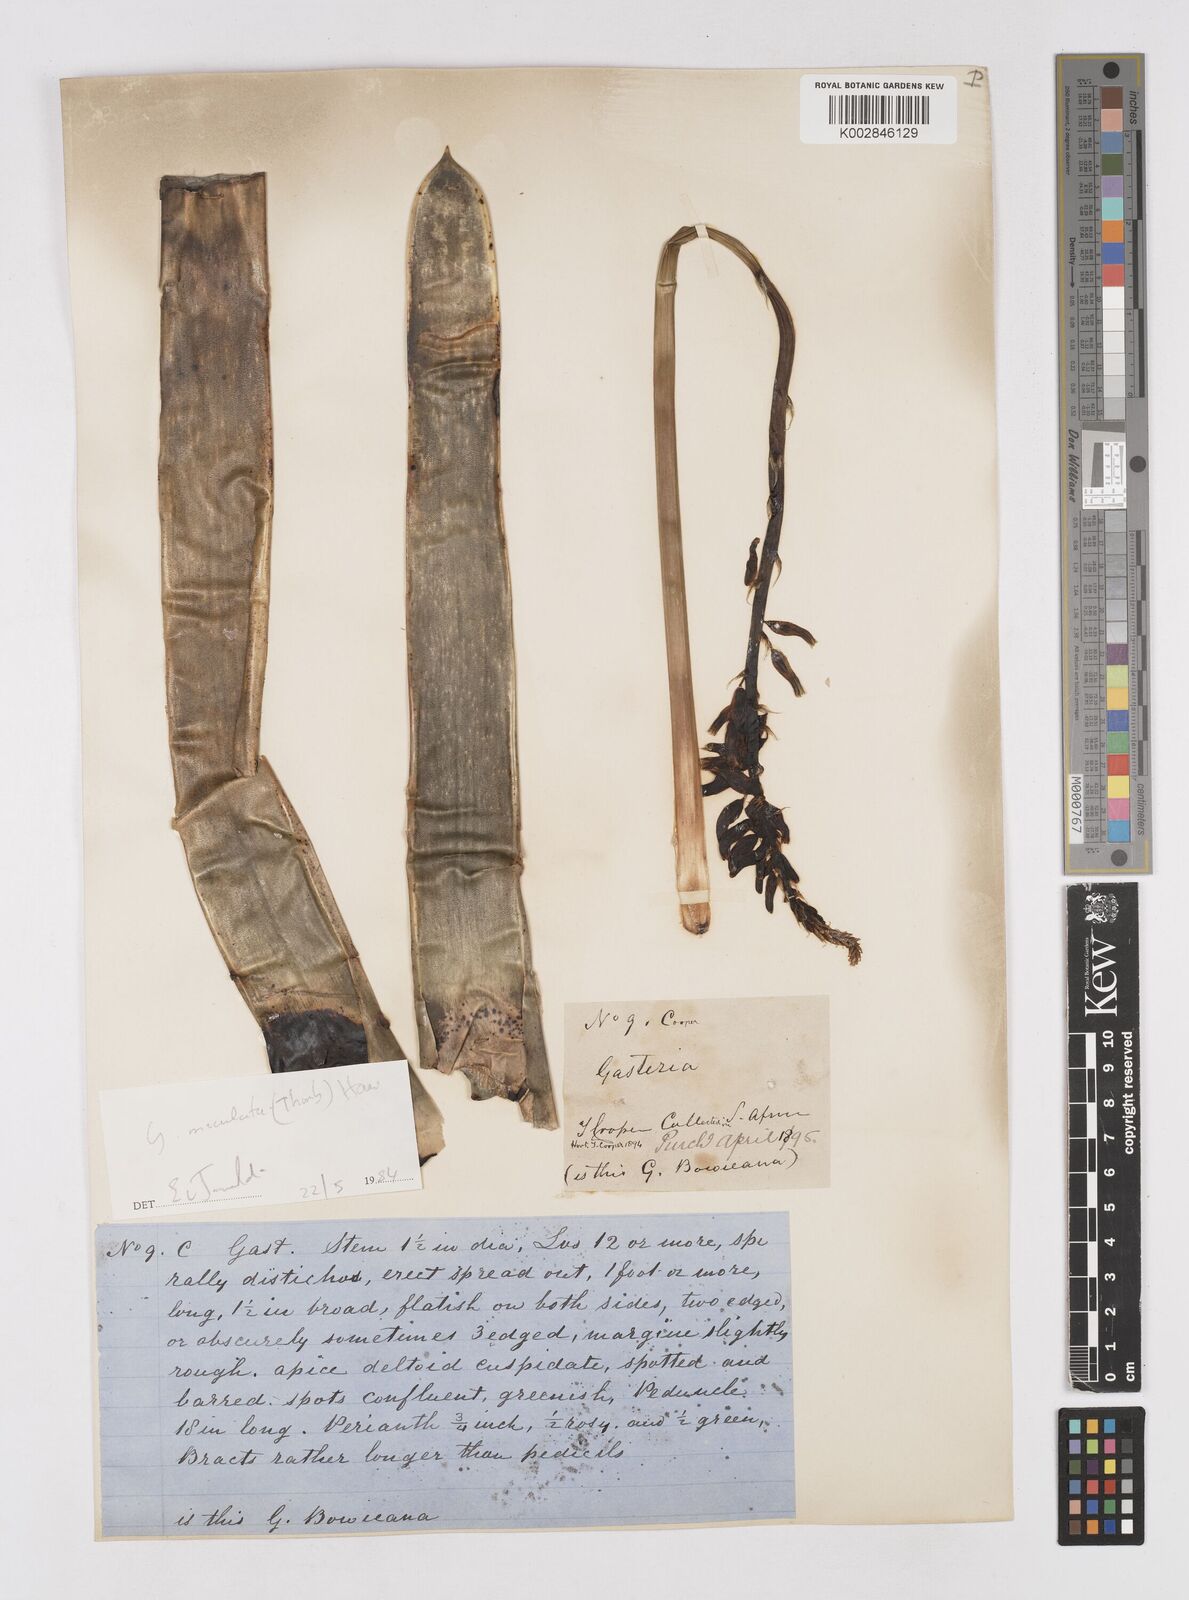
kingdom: Plantae
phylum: Tracheophyta
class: Liliopsida
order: Asparagales
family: Asphodelaceae
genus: Gasteria
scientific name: Gasteria
